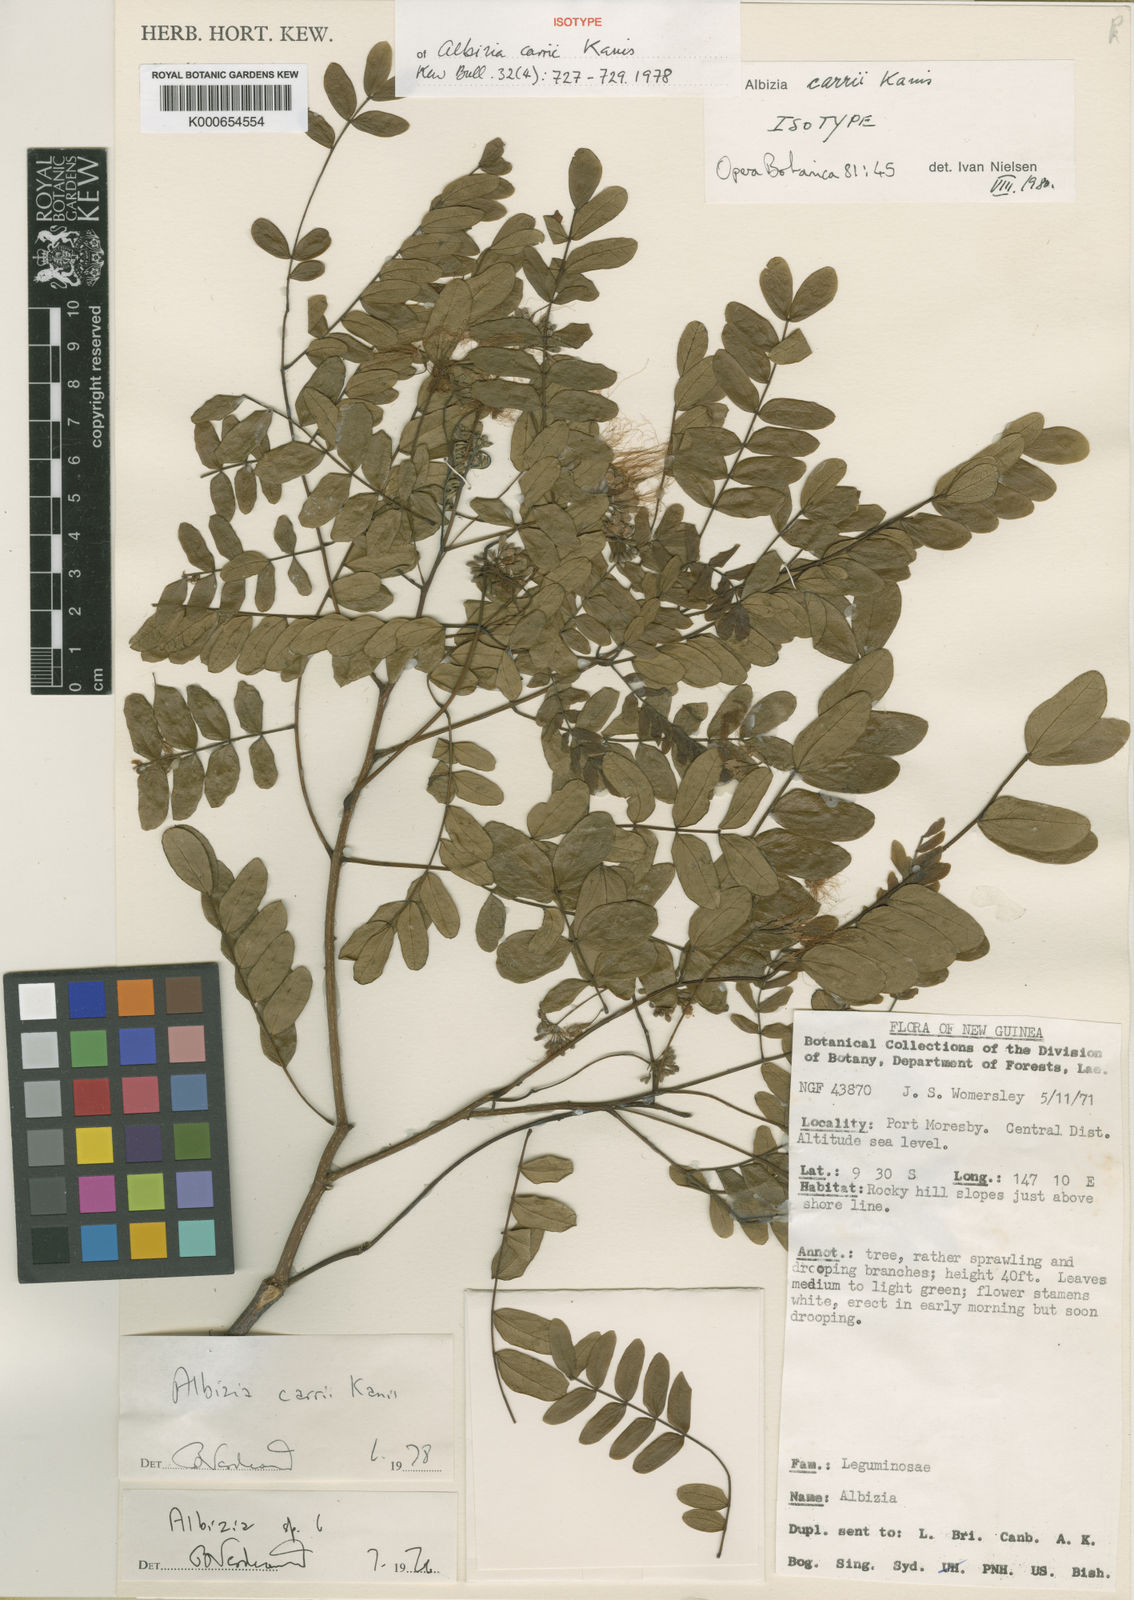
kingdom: Plantae
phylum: Tracheophyta
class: Magnoliopsida
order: Fabales
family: Fabaceae
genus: Albizia
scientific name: Albizia carrii
